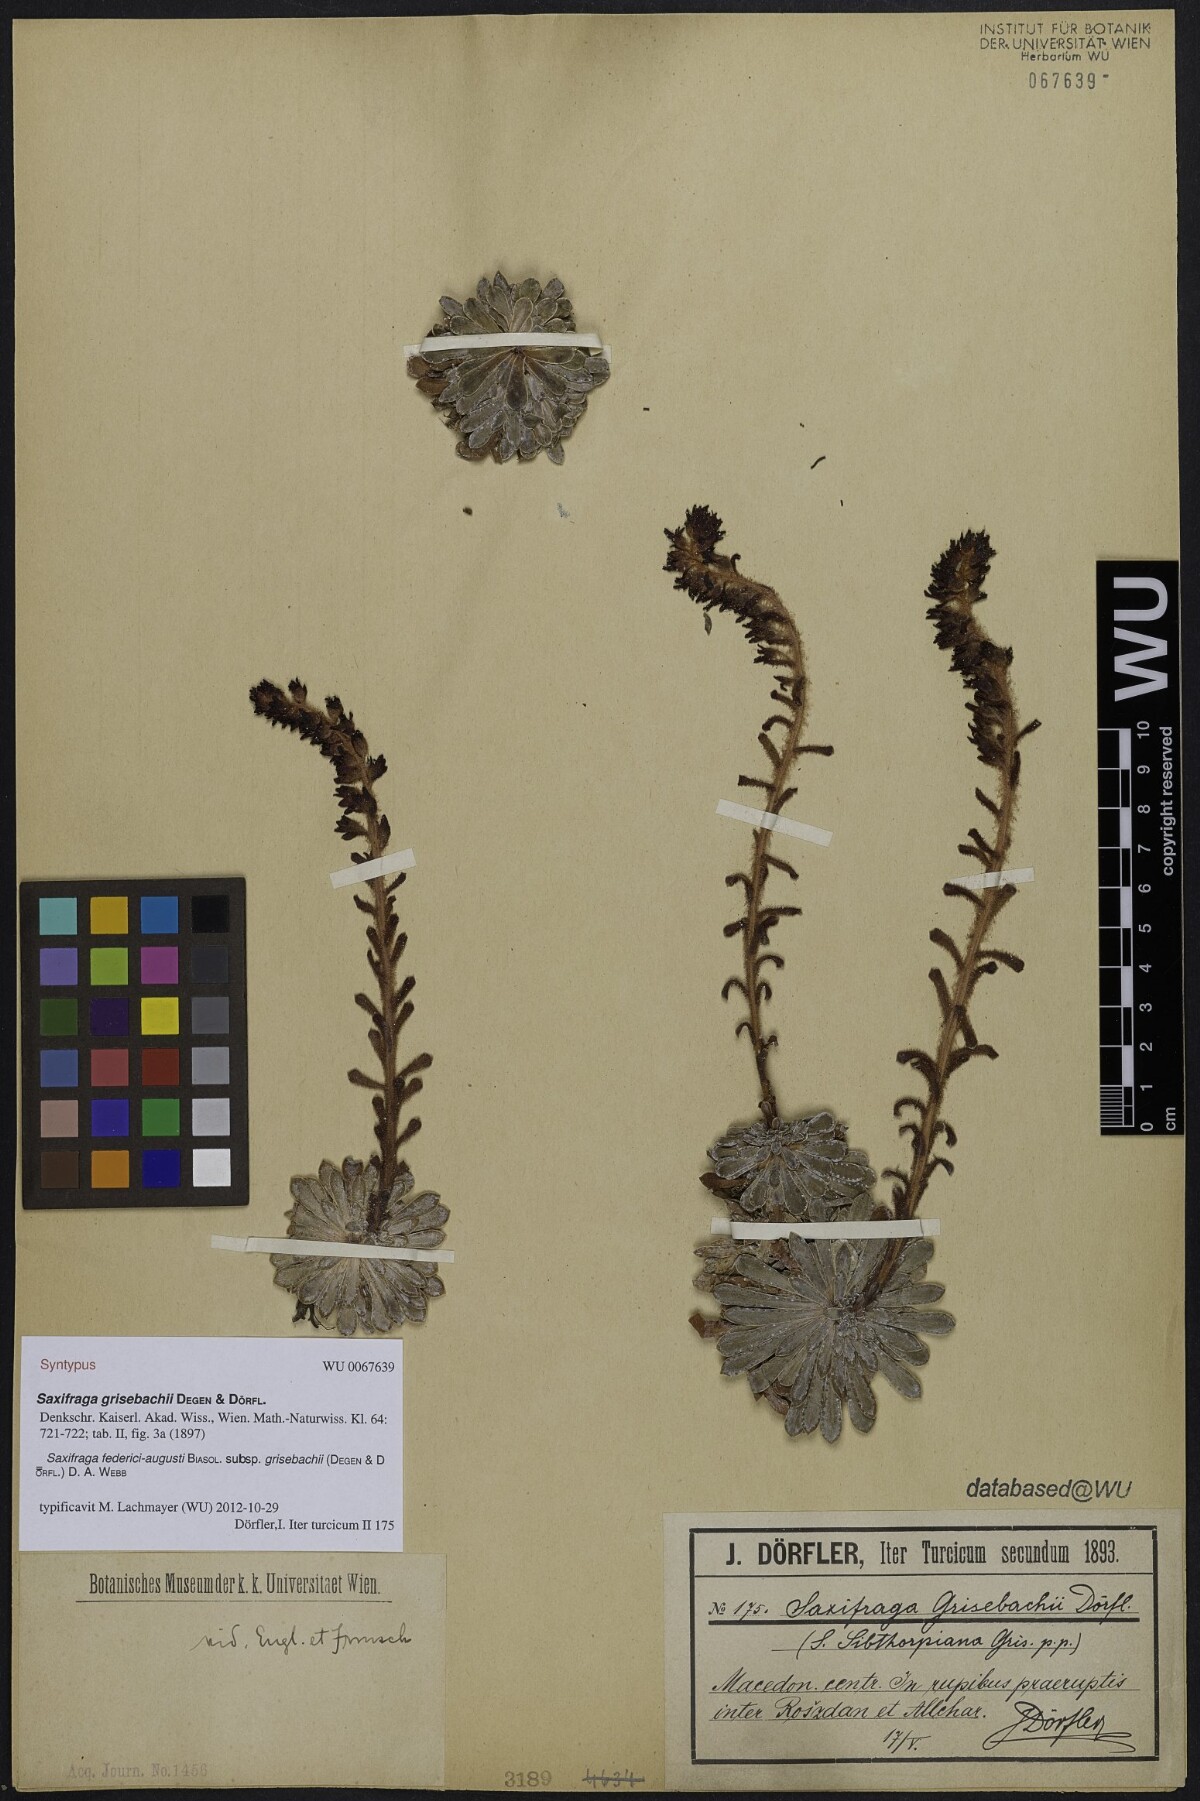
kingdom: Plantae
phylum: Tracheophyta
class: Magnoliopsida
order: Saxifragales
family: Saxifragaceae
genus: Saxifraga
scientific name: Saxifraga federici-augusti
